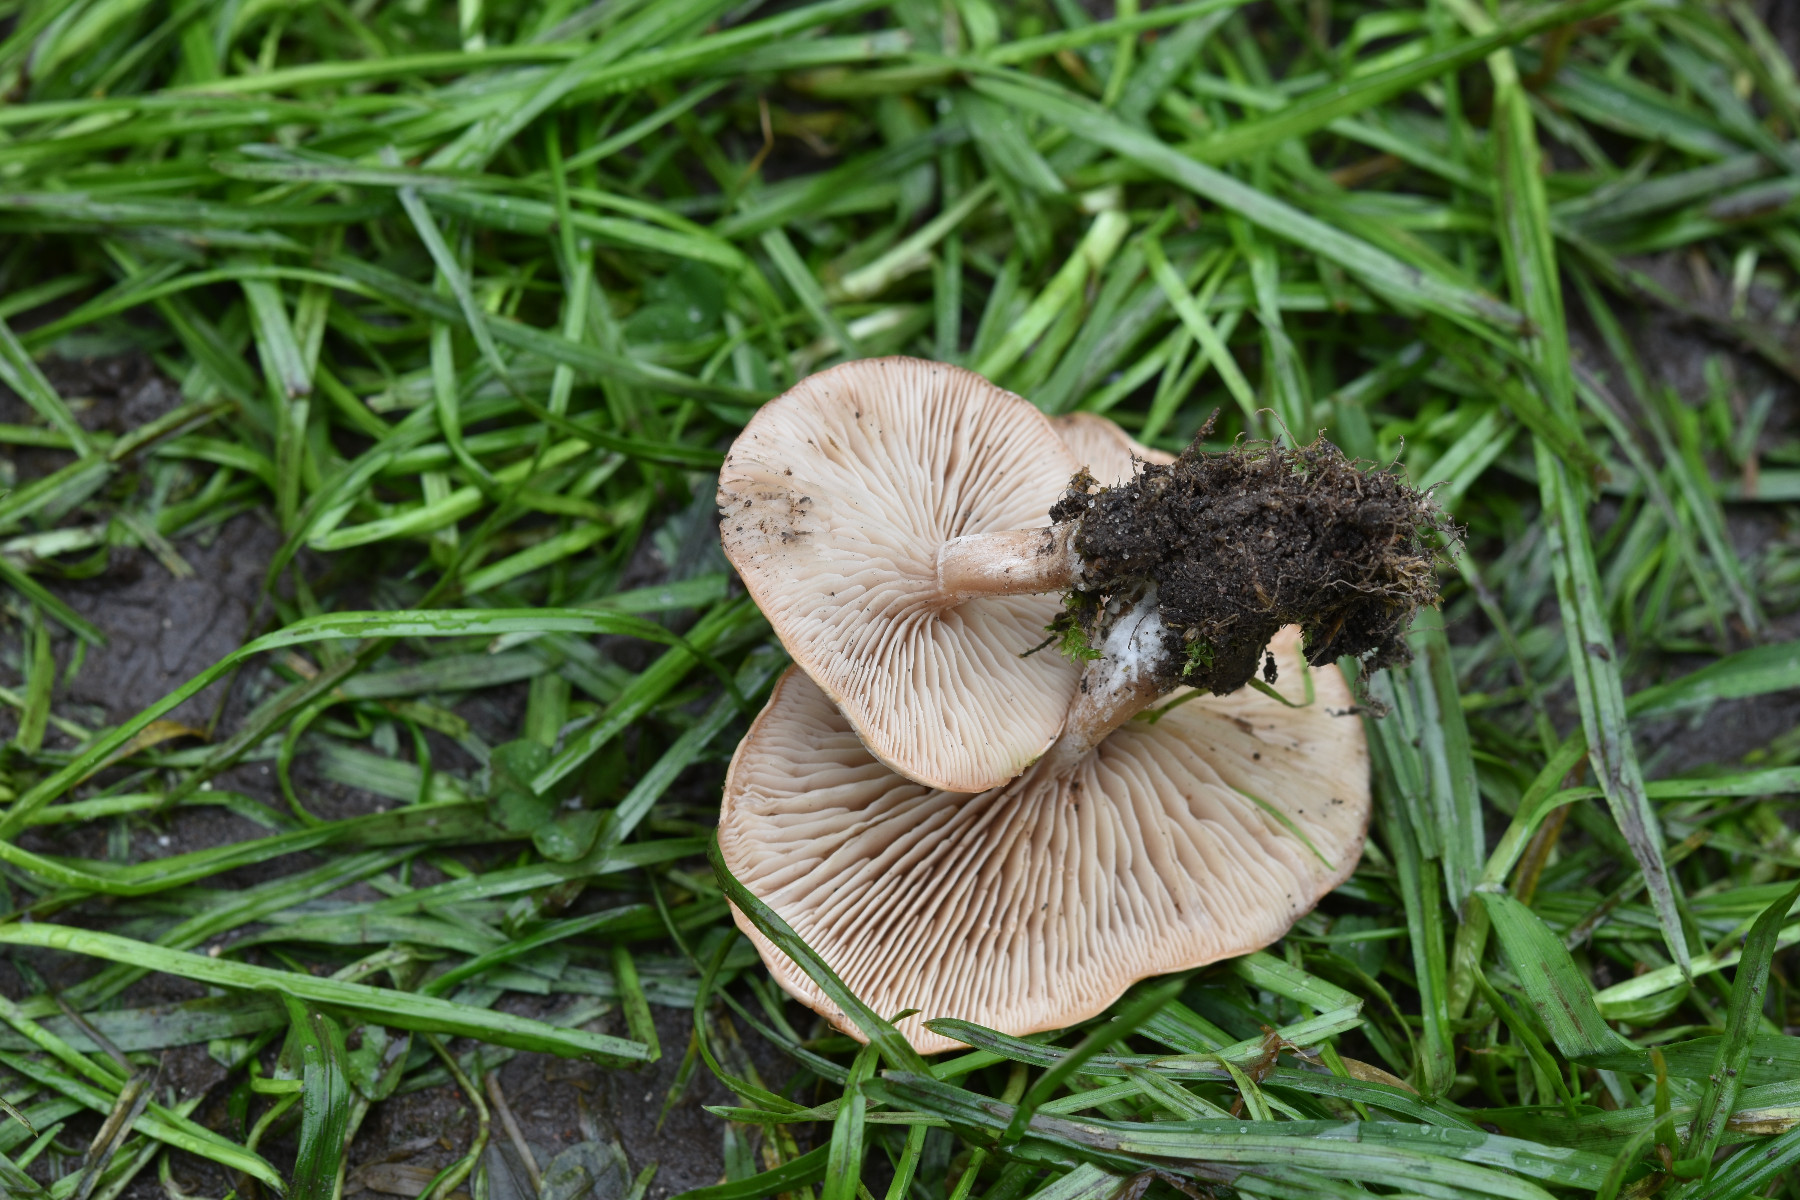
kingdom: Fungi
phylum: Basidiomycota
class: Agaricomycetes
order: Agaricales
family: Tricholomataceae
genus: Clitocybe
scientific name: Clitocybe rivulosa
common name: eng-tragthat
